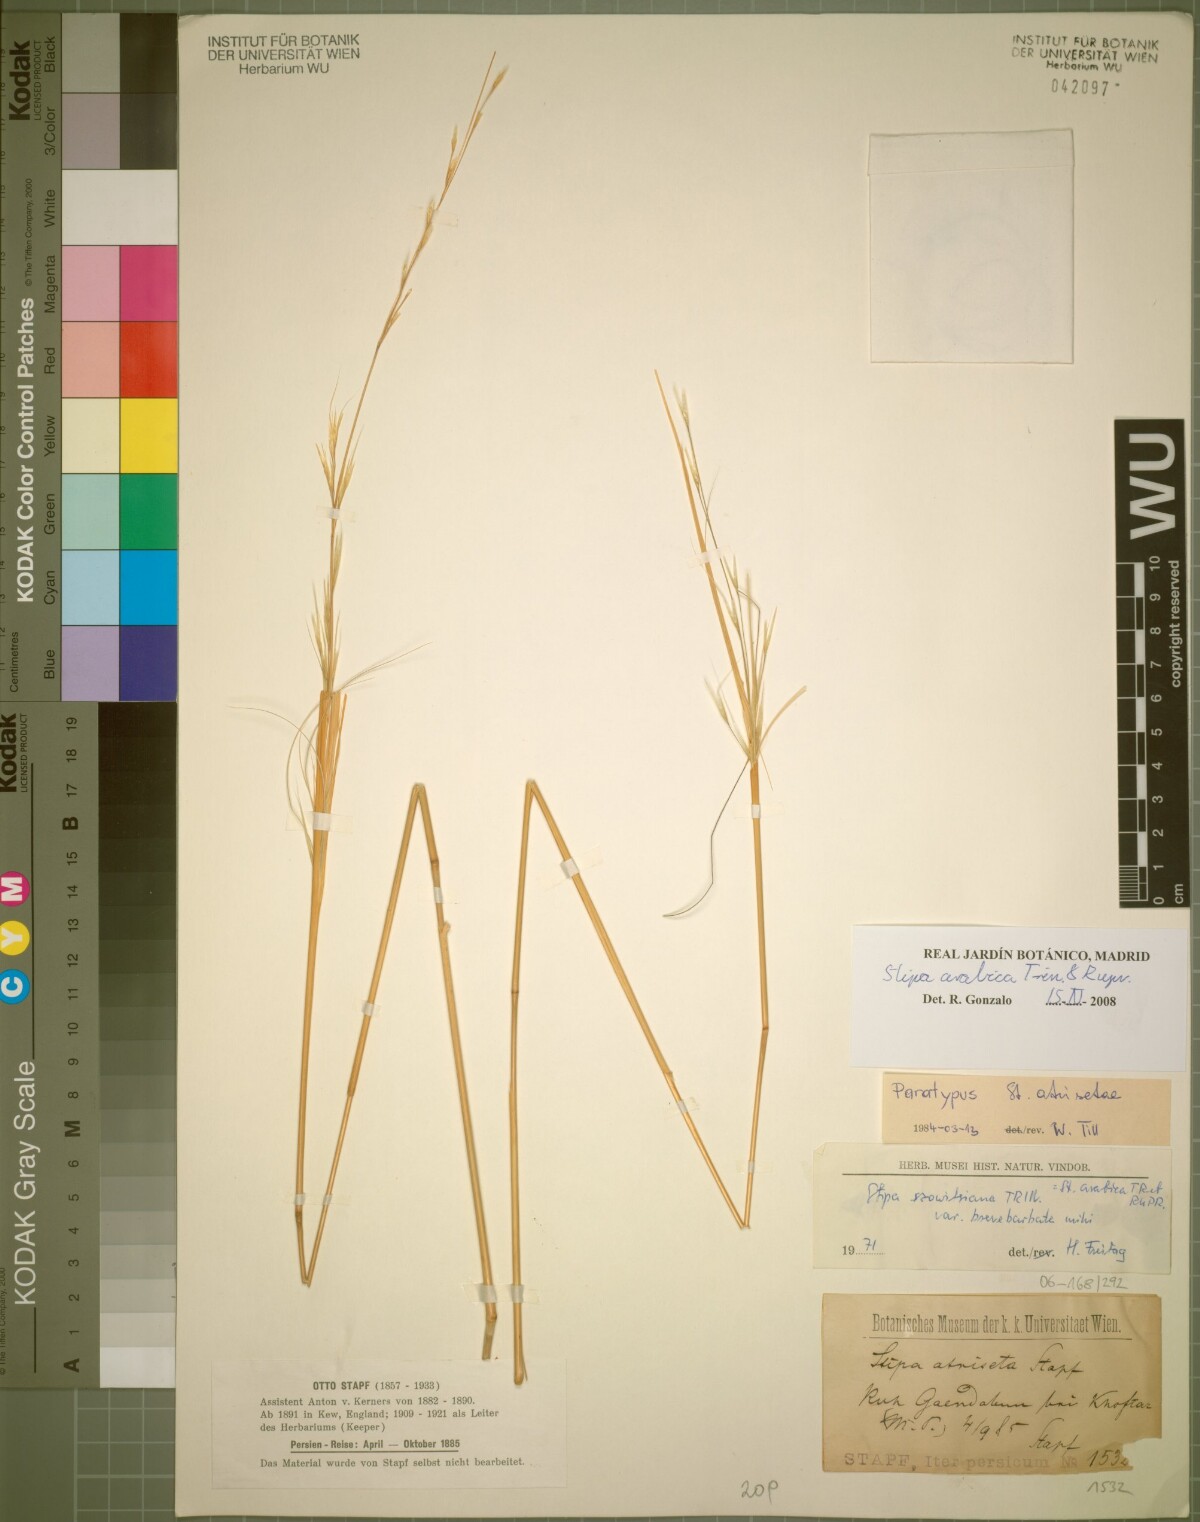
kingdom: Plantae
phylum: Tracheophyta
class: Liliopsida
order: Poales
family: Poaceae
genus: Stipa
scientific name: Stipa hohenackeriana
